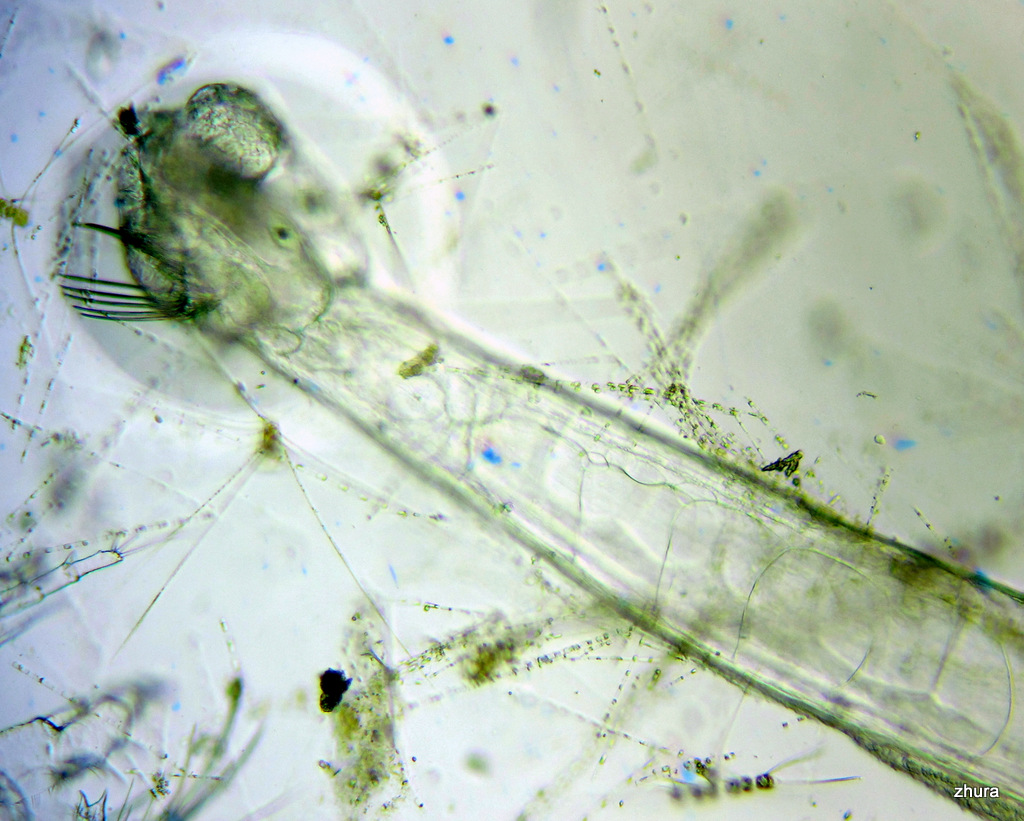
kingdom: Animalia
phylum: Chaetognatha
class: Sagittoidea
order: Aphragmophora
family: Sagittidae
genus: Parasagitta
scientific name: Parasagitta elegans
